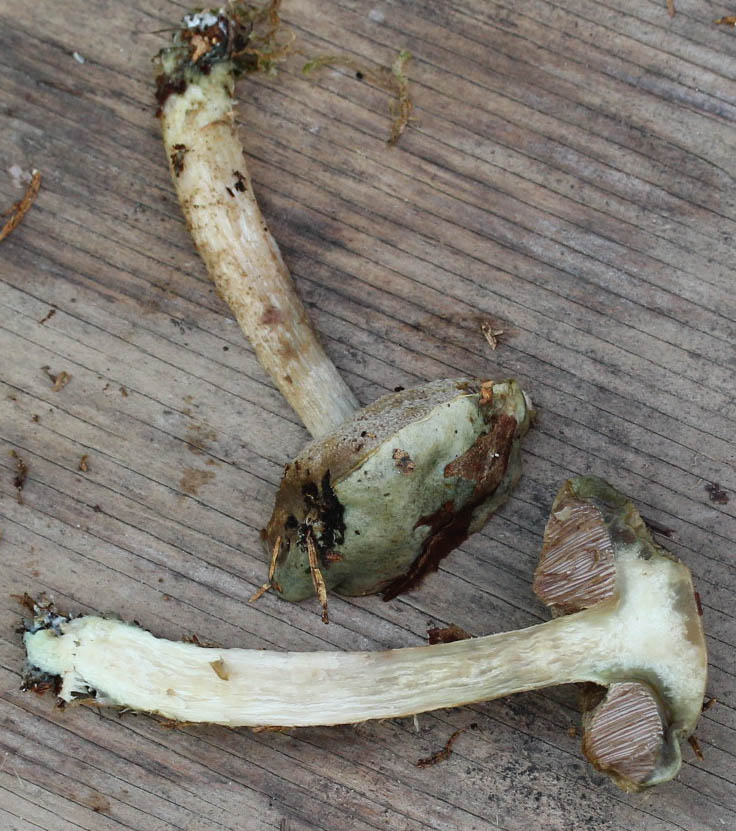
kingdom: Fungi
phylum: Basidiomycota
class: Agaricomycetes
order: Boletales
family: Boletaceae
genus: Leccinum
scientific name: Leccinum scabrum
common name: hvid skælrørhat
